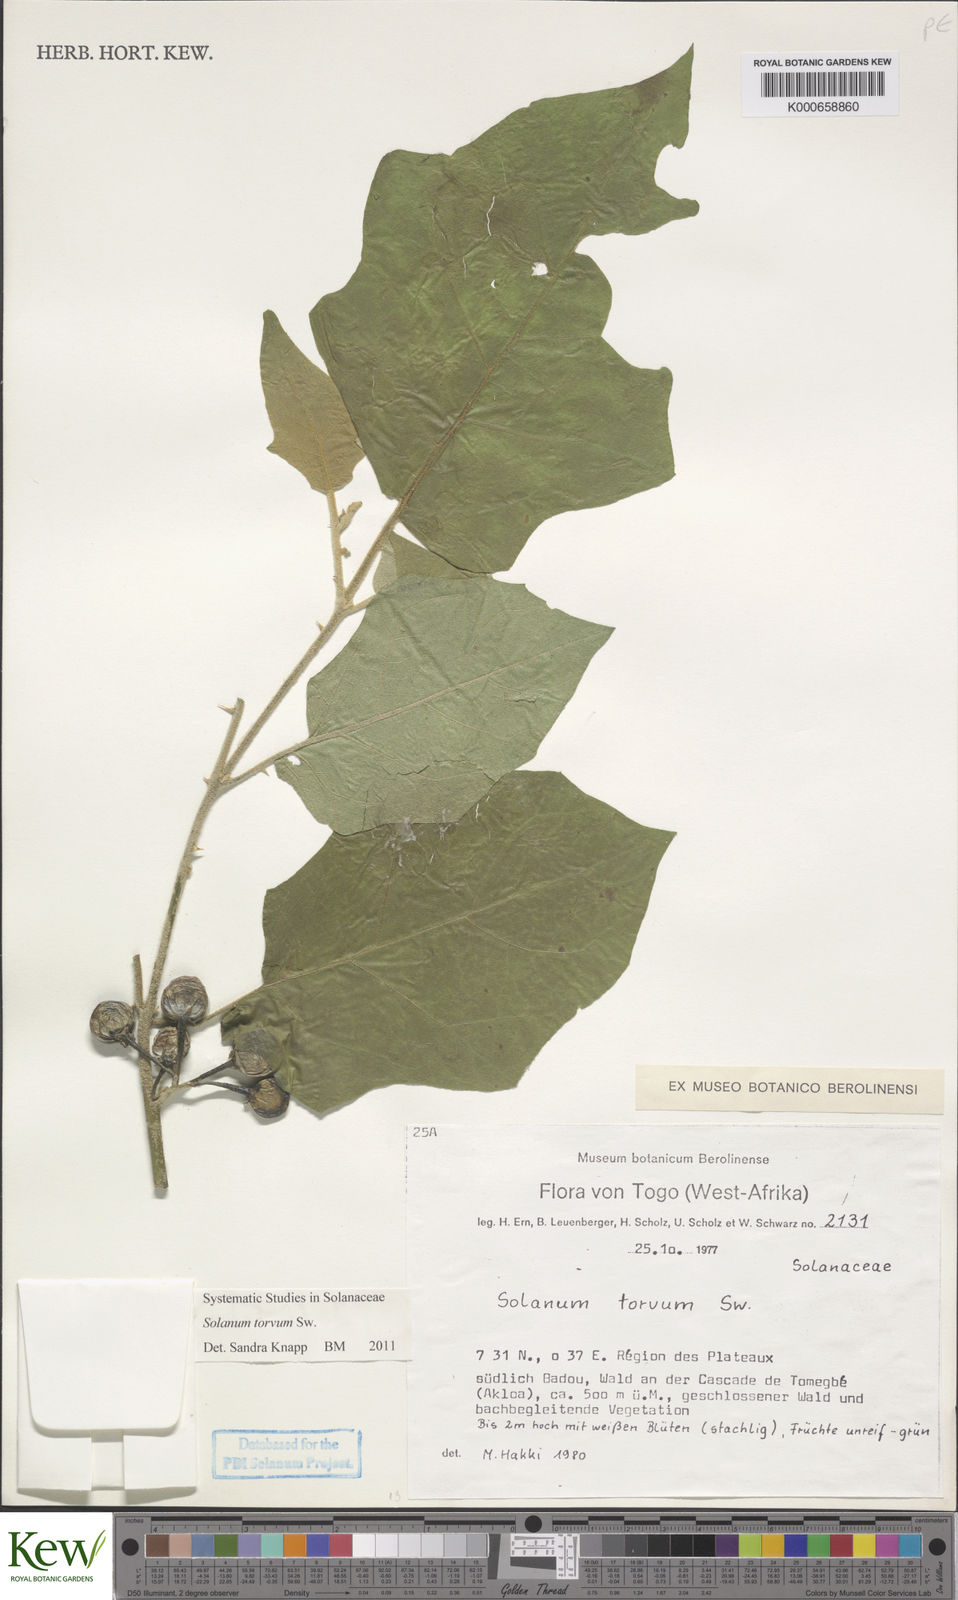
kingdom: Plantae
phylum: Tracheophyta
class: Magnoliopsida
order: Solanales
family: Solanaceae
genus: Solanum
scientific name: Solanum torvum
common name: Turkey berry
